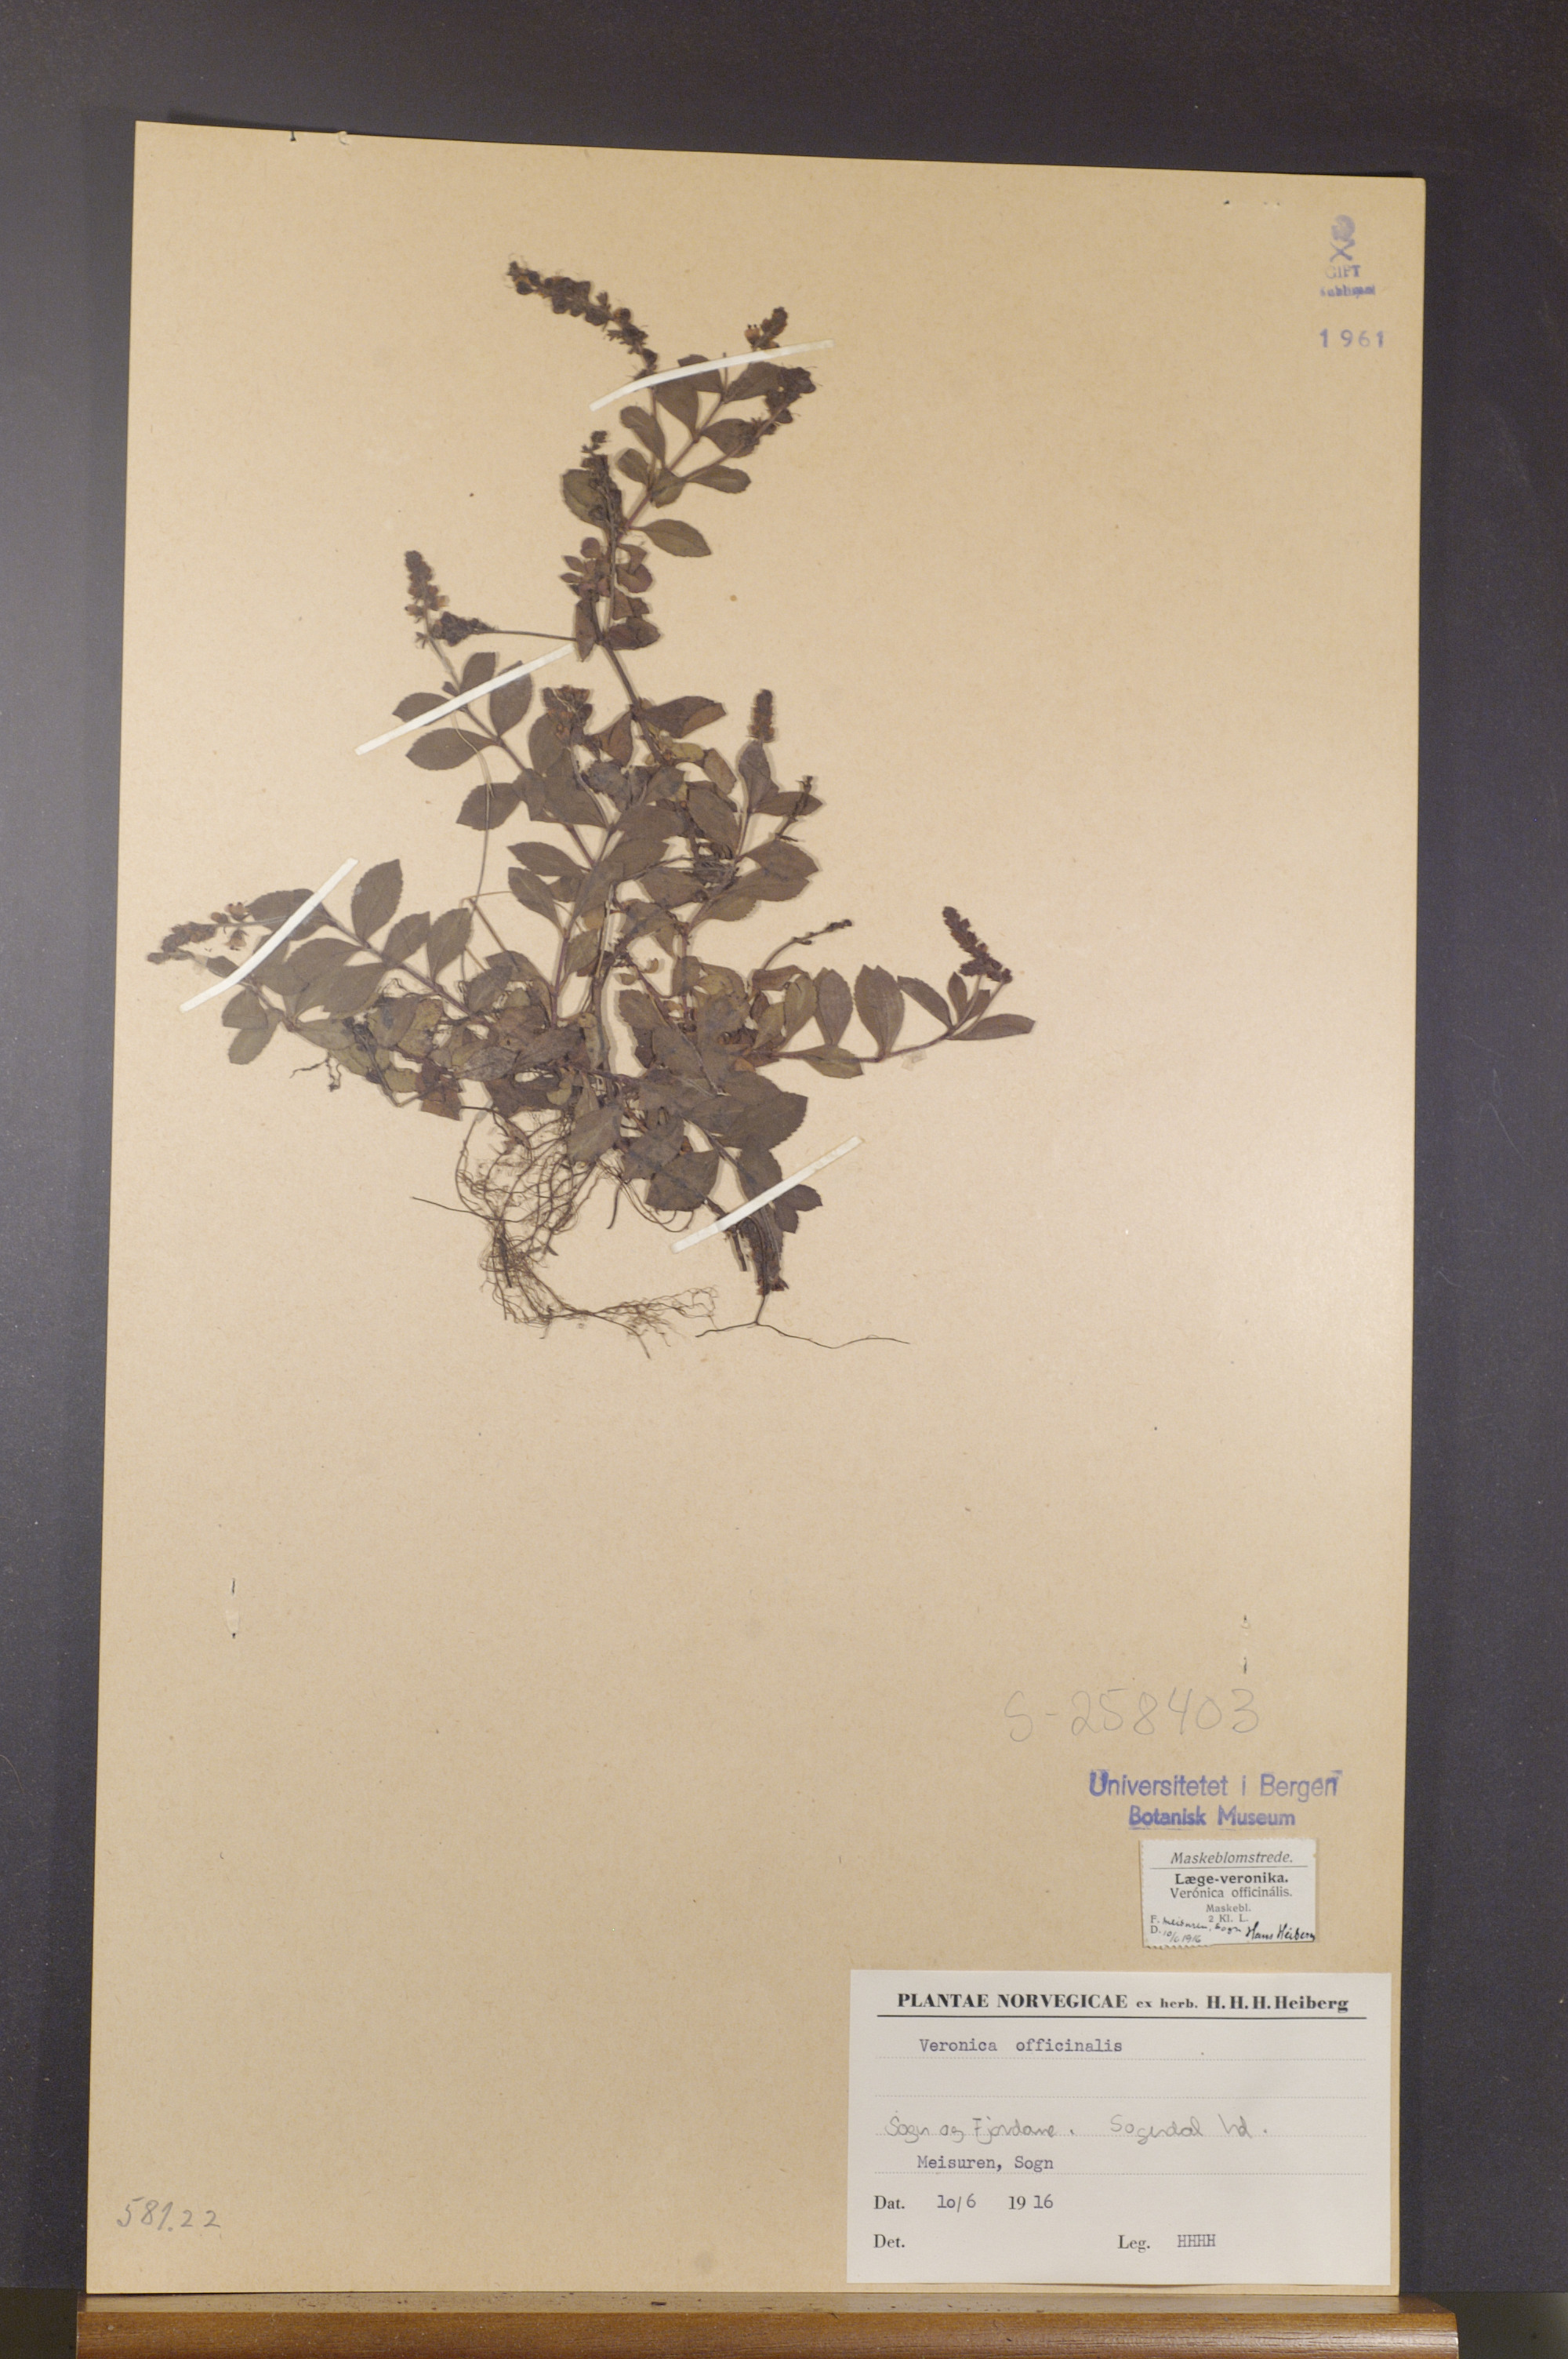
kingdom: Plantae
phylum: Tracheophyta
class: Magnoliopsida
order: Lamiales
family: Plantaginaceae
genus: Veronica
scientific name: Veronica officinalis
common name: Common speedwell
